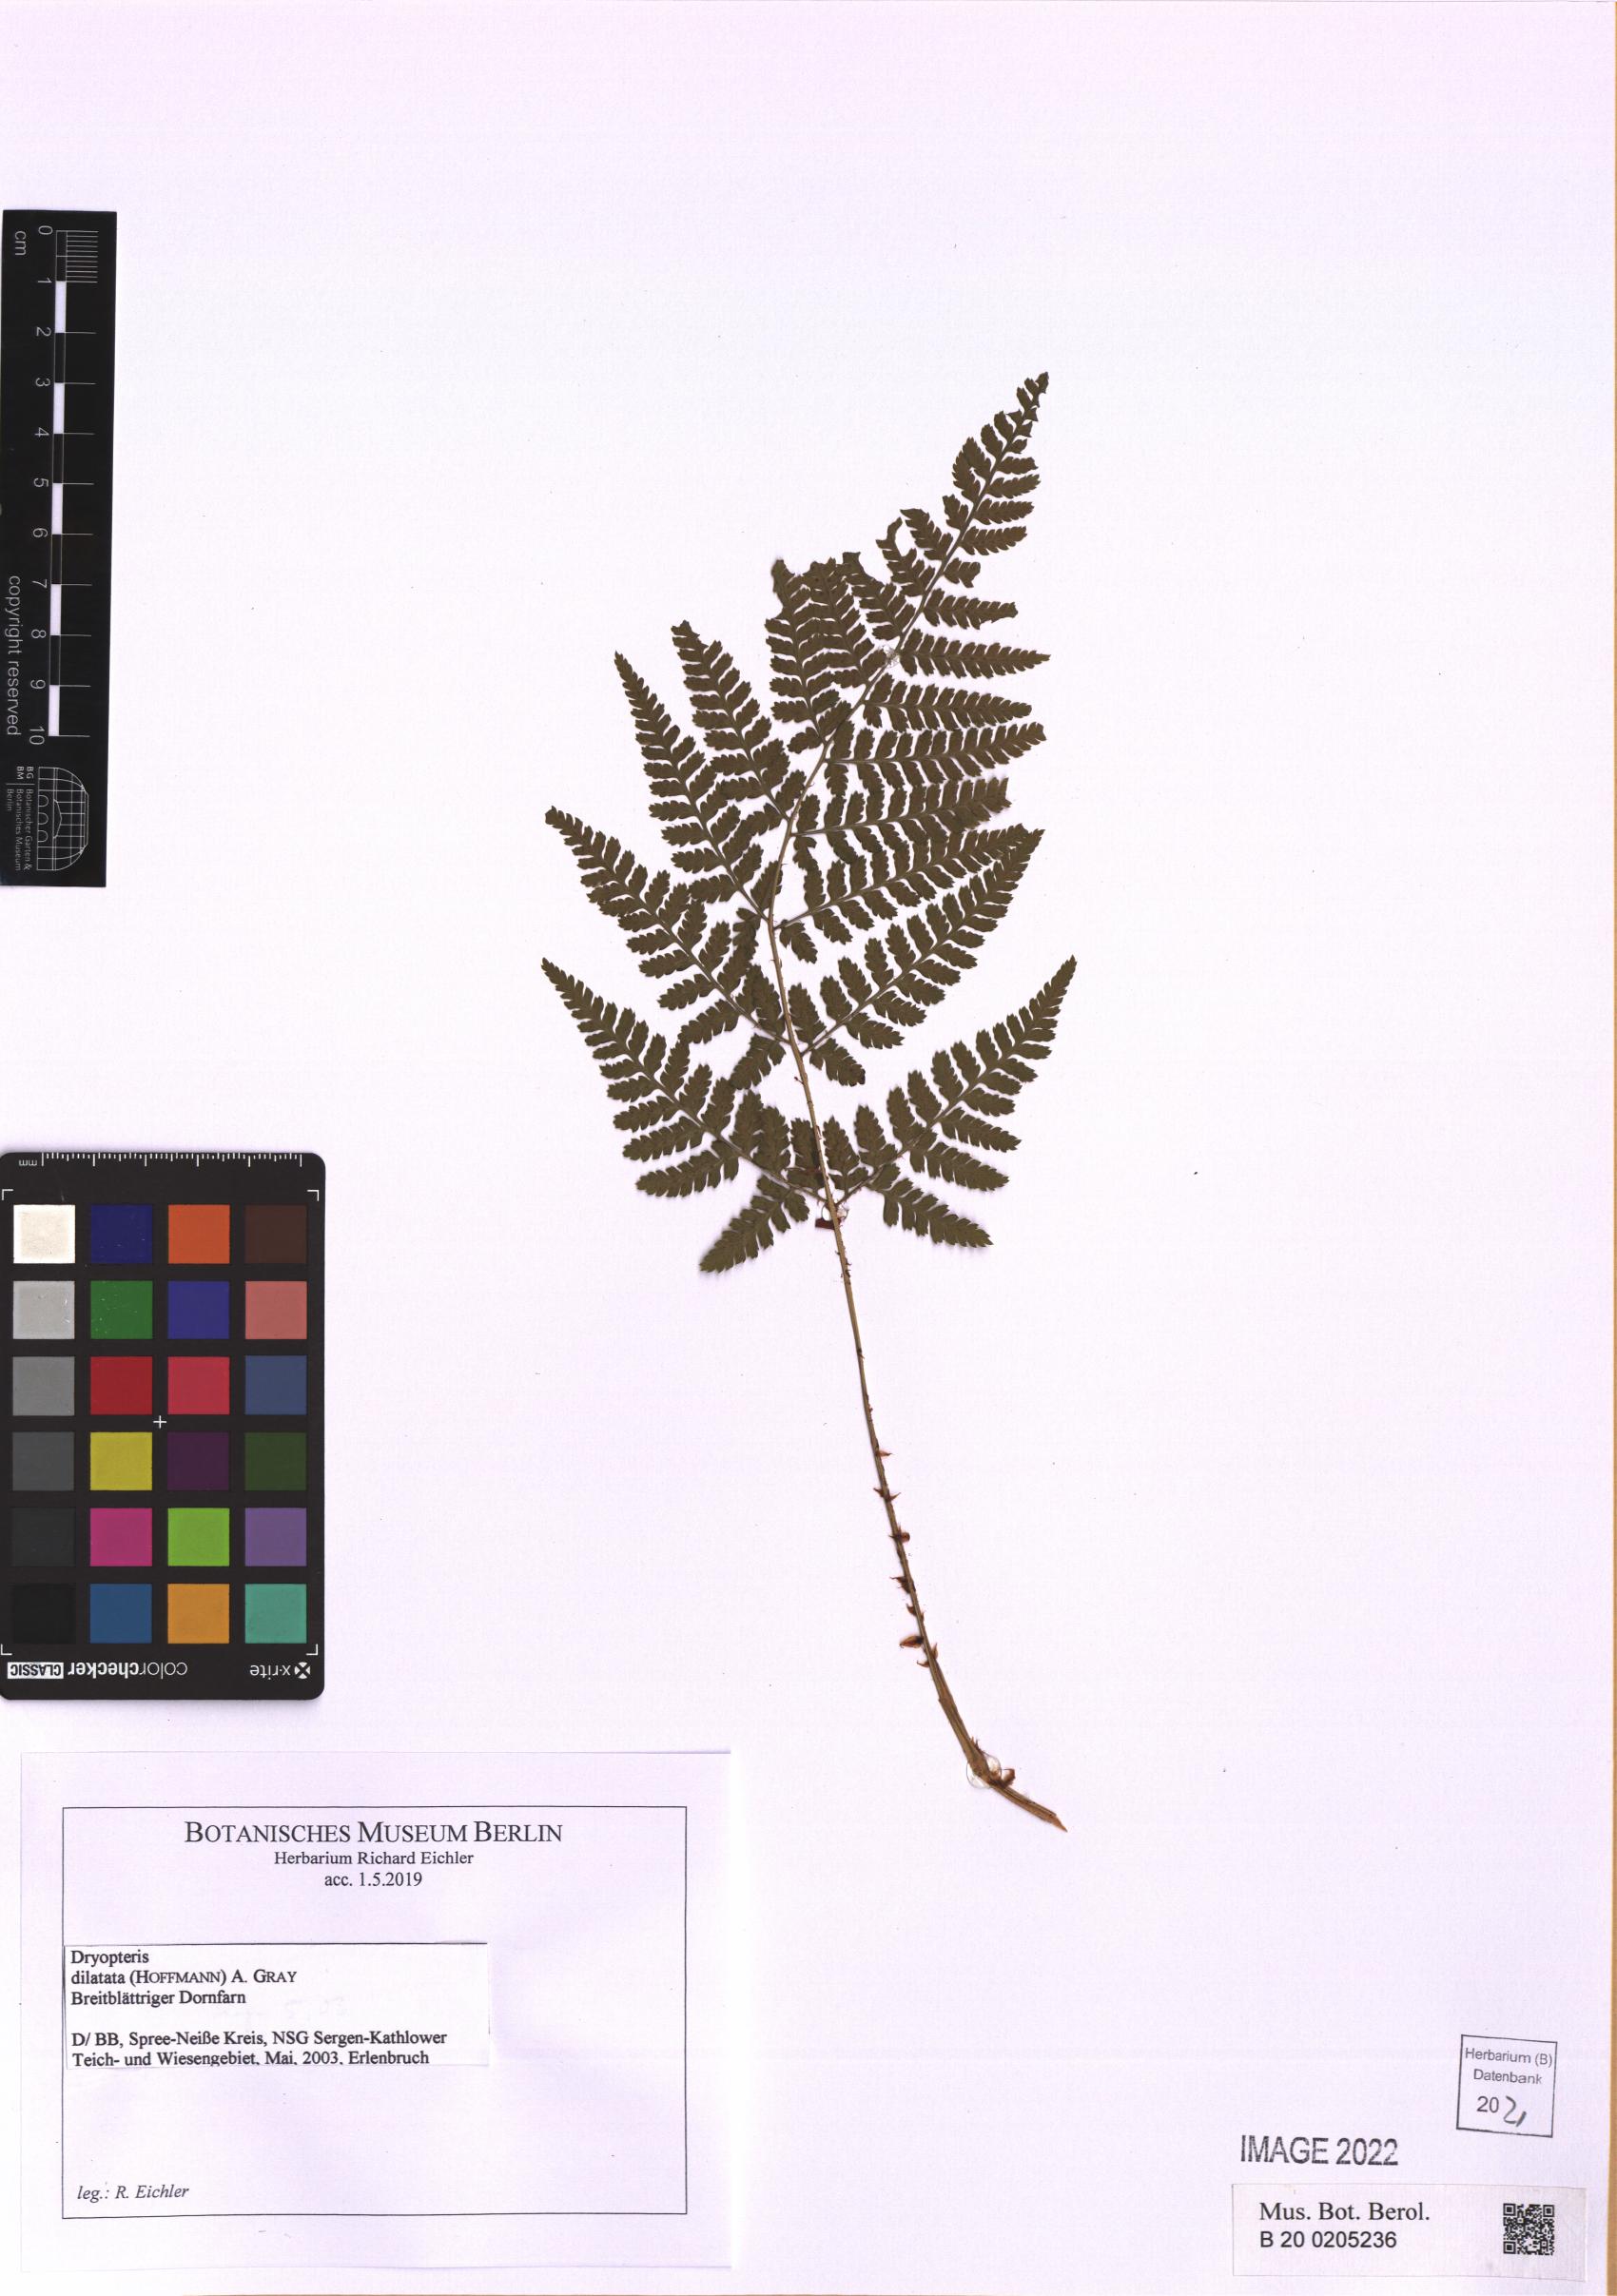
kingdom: Plantae
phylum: Tracheophyta
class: Polypodiopsida
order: Polypodiales
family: Dryopteridaceae
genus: Dryopteris
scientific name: Dryopteris dilatata
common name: Broad buckler-fern
